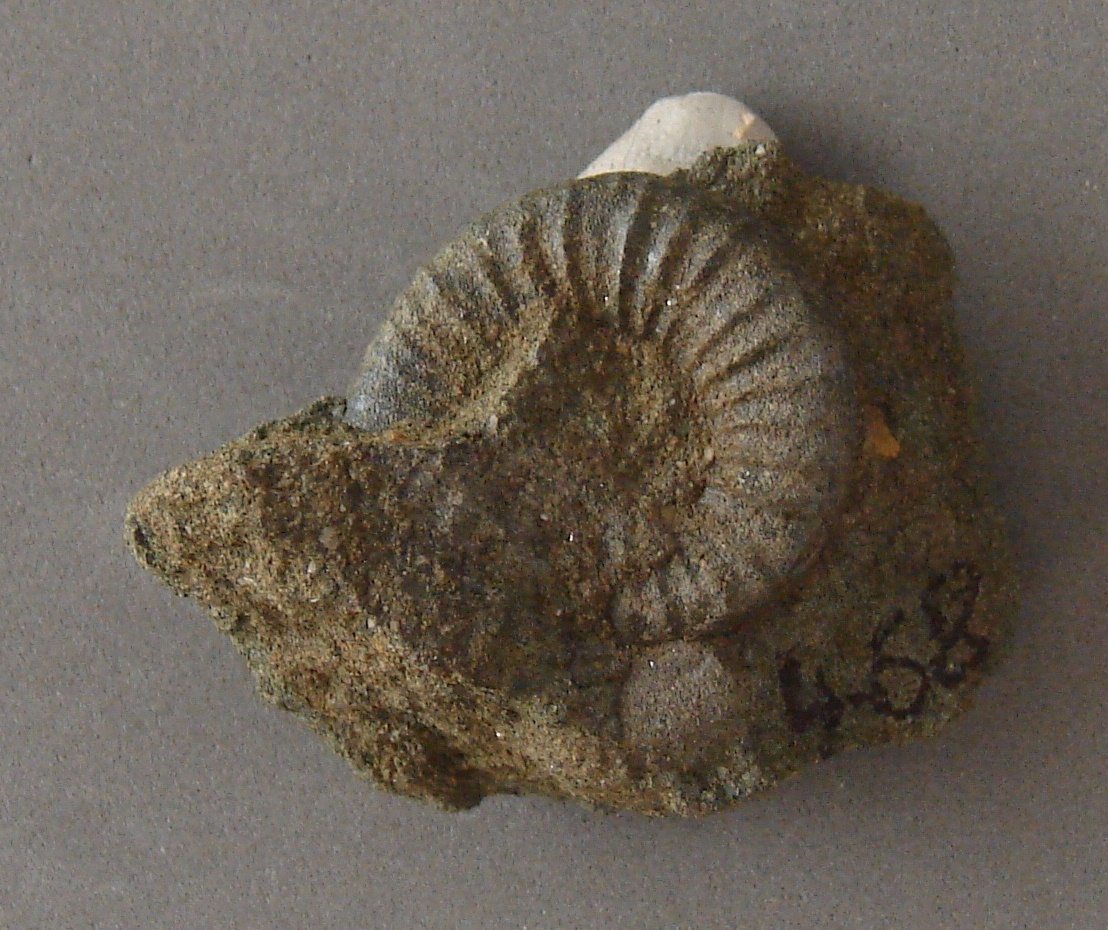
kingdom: Animalia
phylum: Mollusca
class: Cephalopoda
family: Hildoceratidae
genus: Dumortieria
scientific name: Dumortieria
